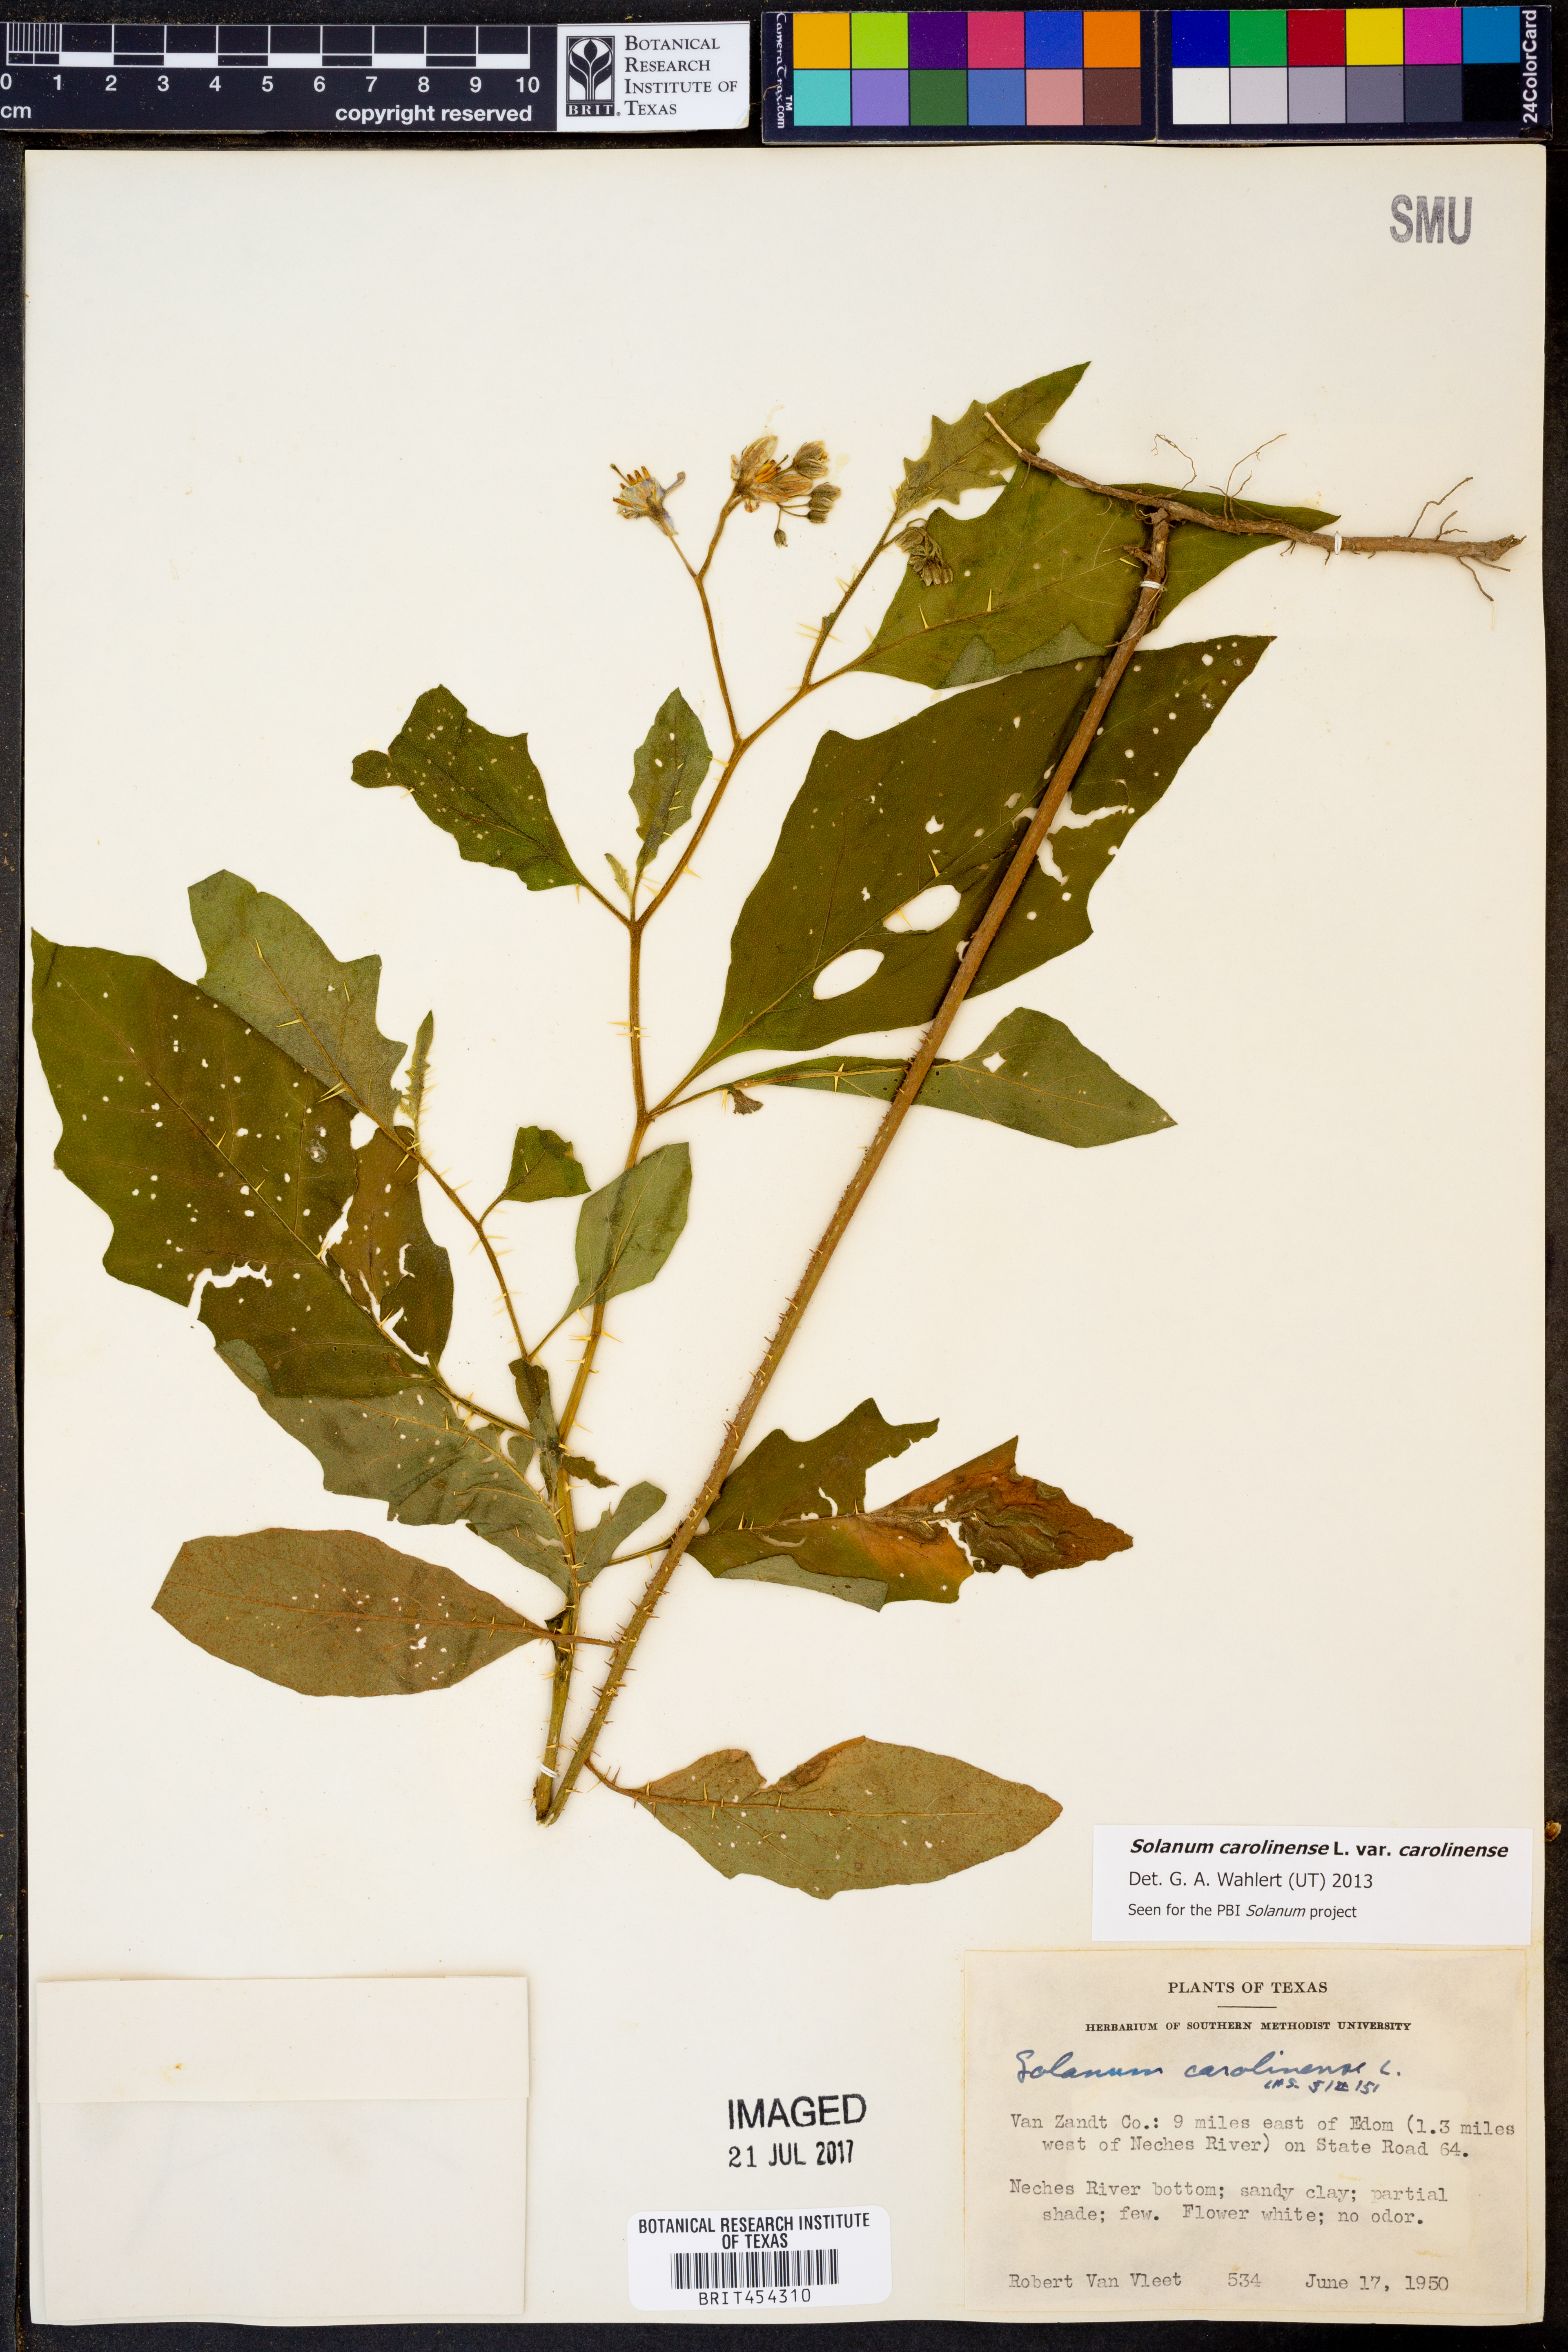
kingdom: Plantae
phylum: Tracheophyta
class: Magnoliopsida
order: Solanales
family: Solanaceae
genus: Solanum
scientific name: Solanum carolinense
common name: Horse-nettle
